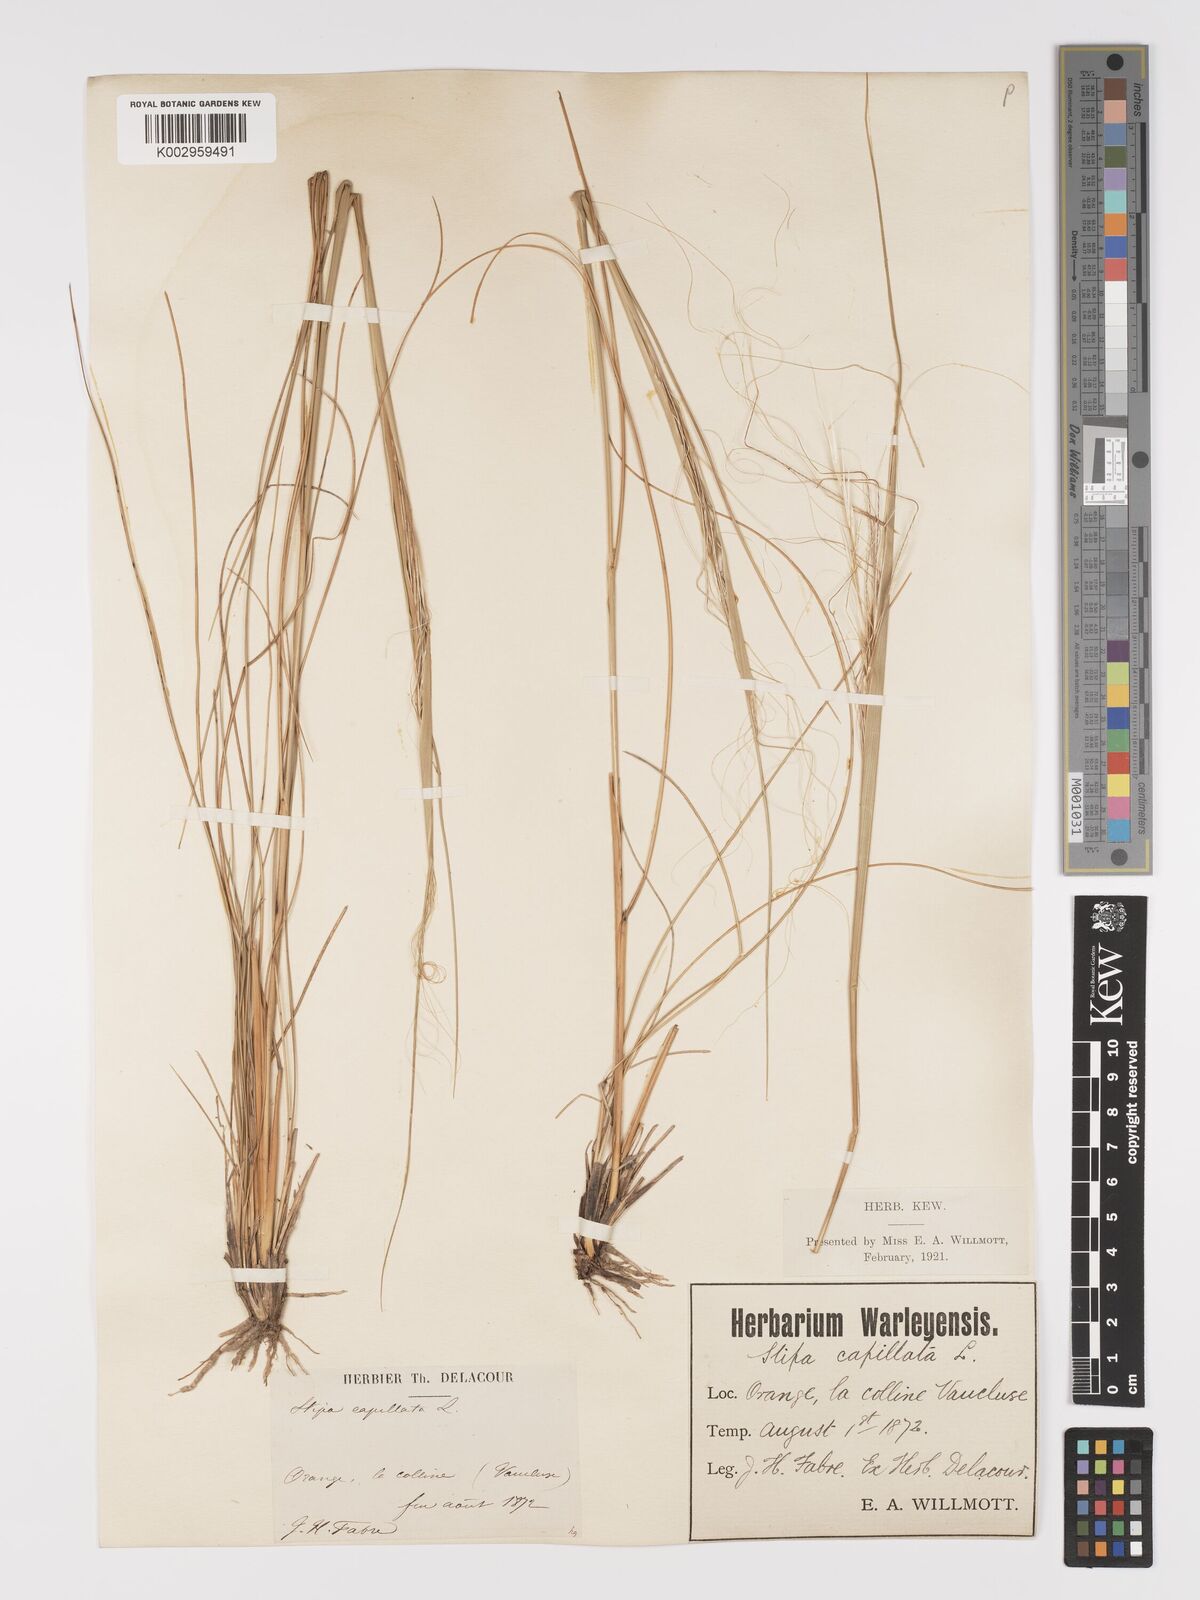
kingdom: Plantae
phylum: Tracheophyta
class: Liliopsida
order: Poales
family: Poaceae
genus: Stipa
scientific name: Stipa capillata
